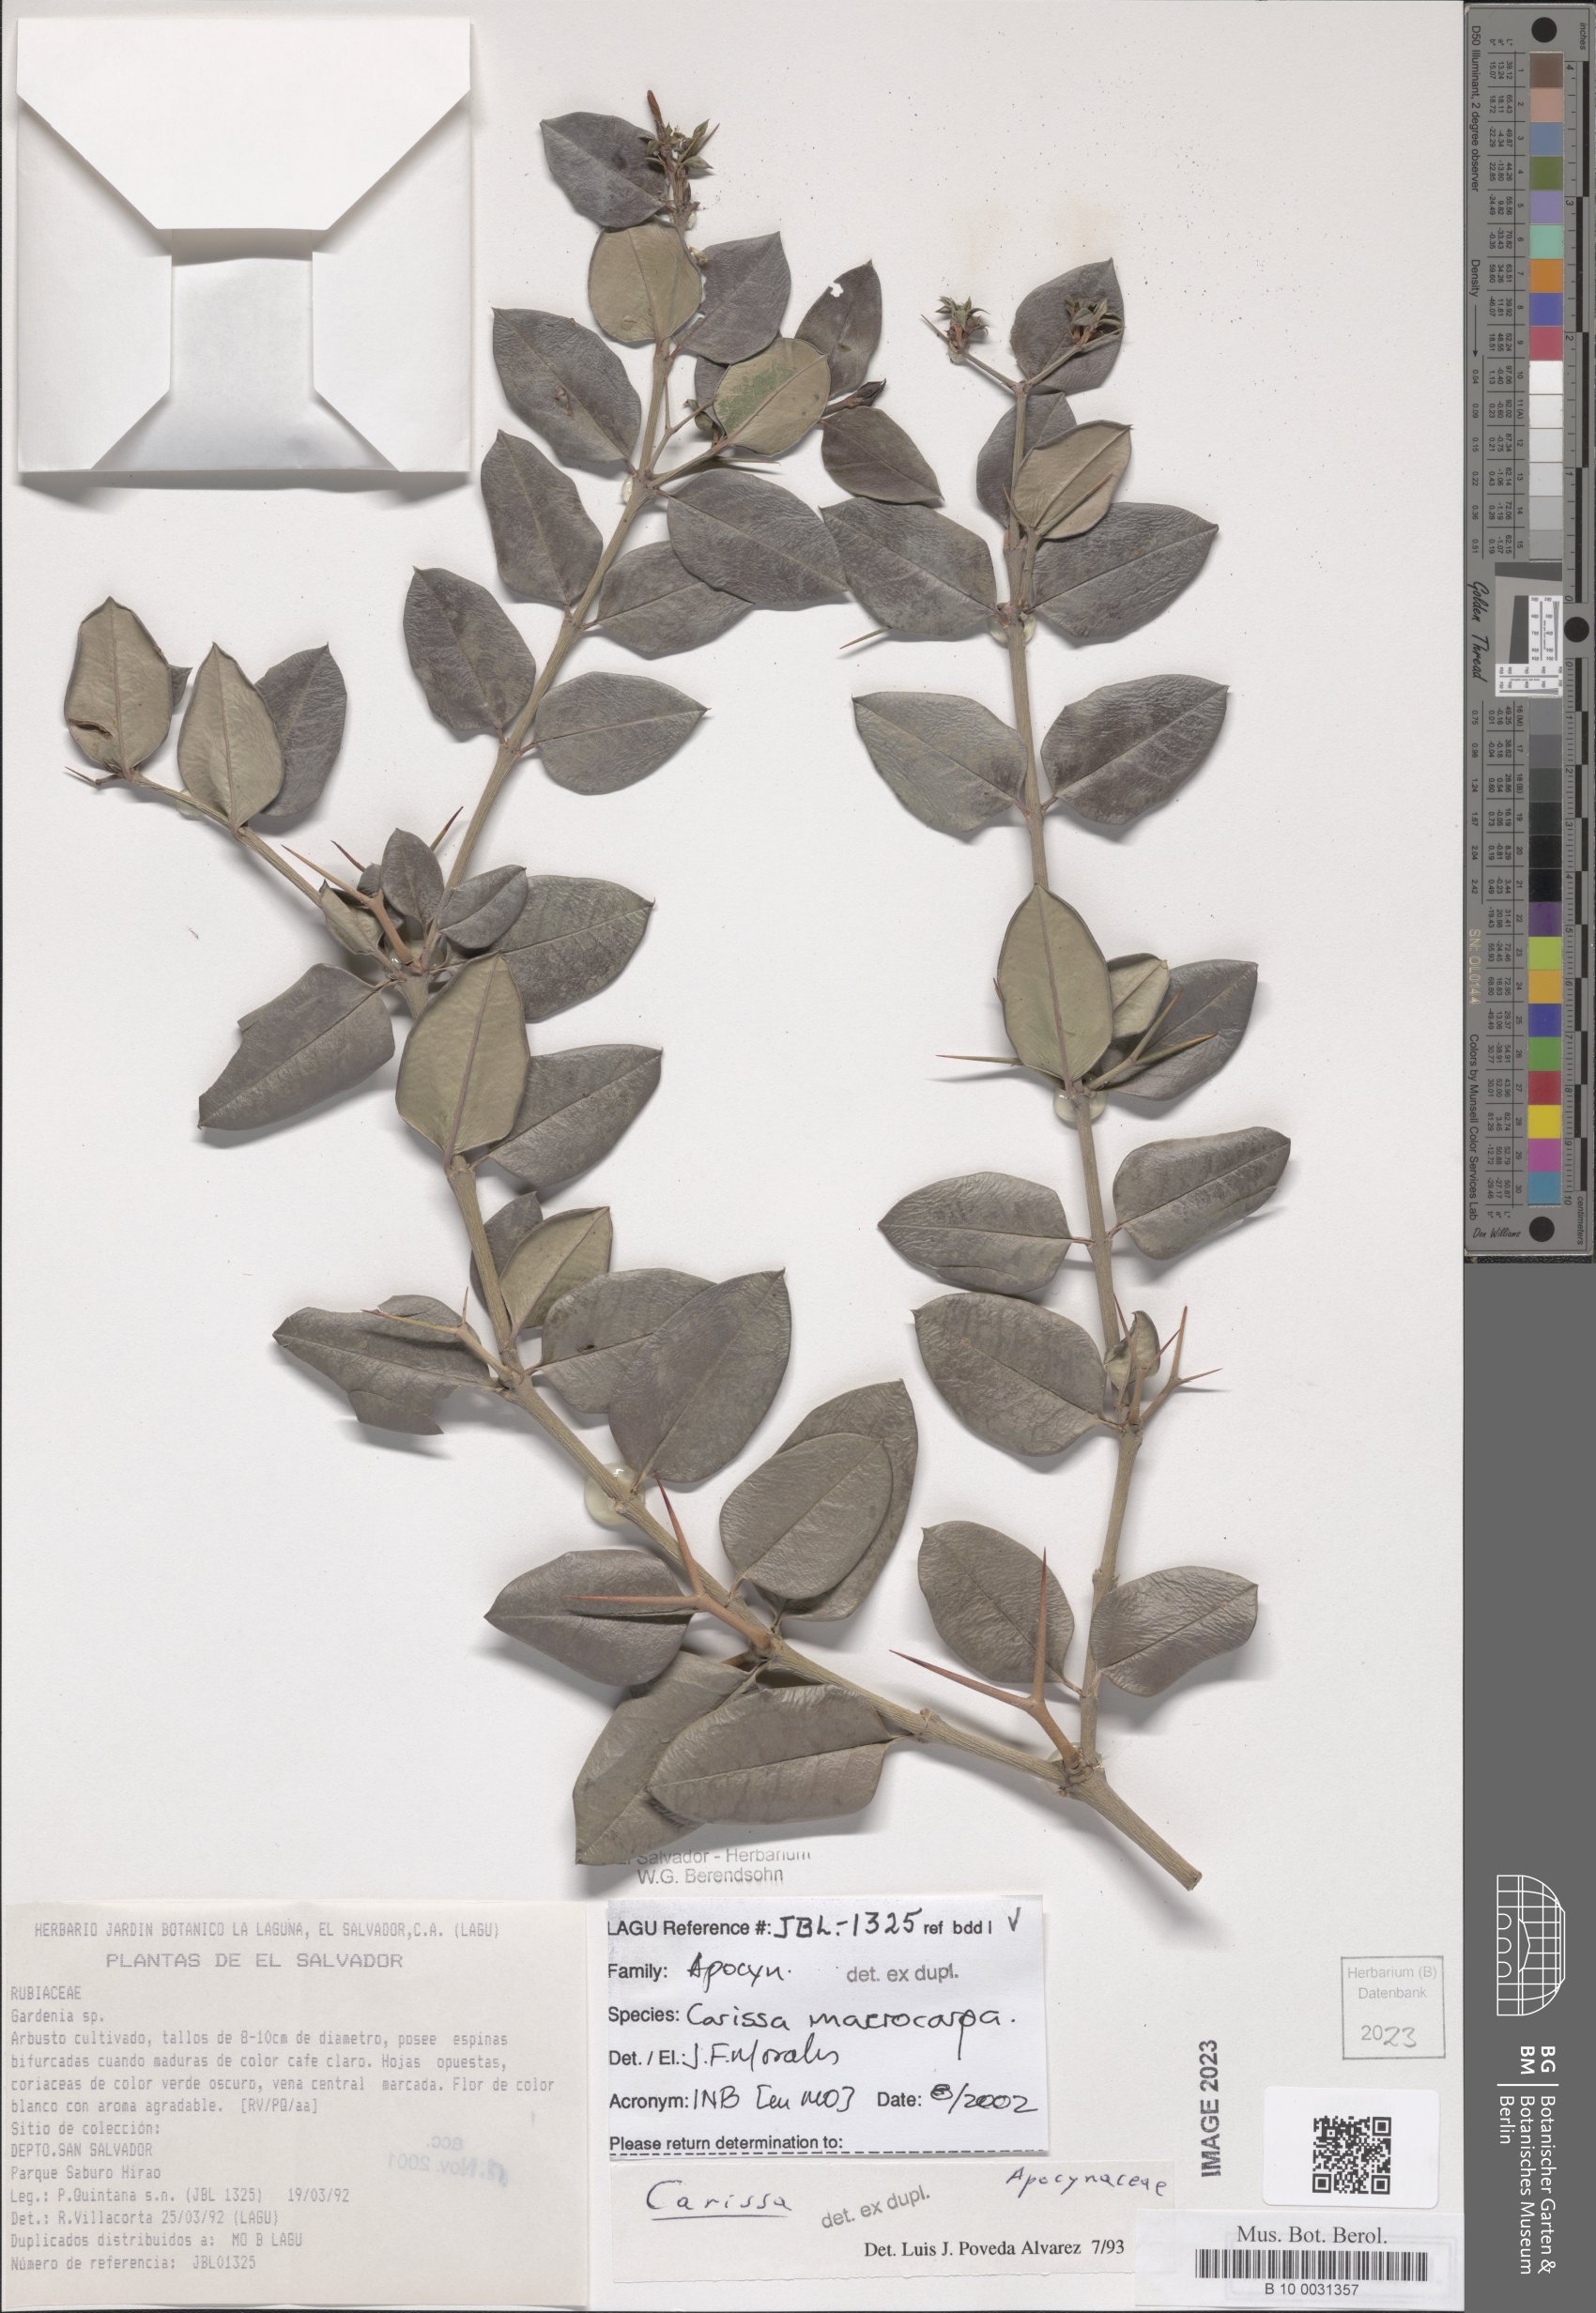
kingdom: Plantae
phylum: Tracheophyta
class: Magnoliopsida
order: Gentianales
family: Apocynaceae
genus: Carissa
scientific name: Carissa macrocarpa
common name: Natal plum
